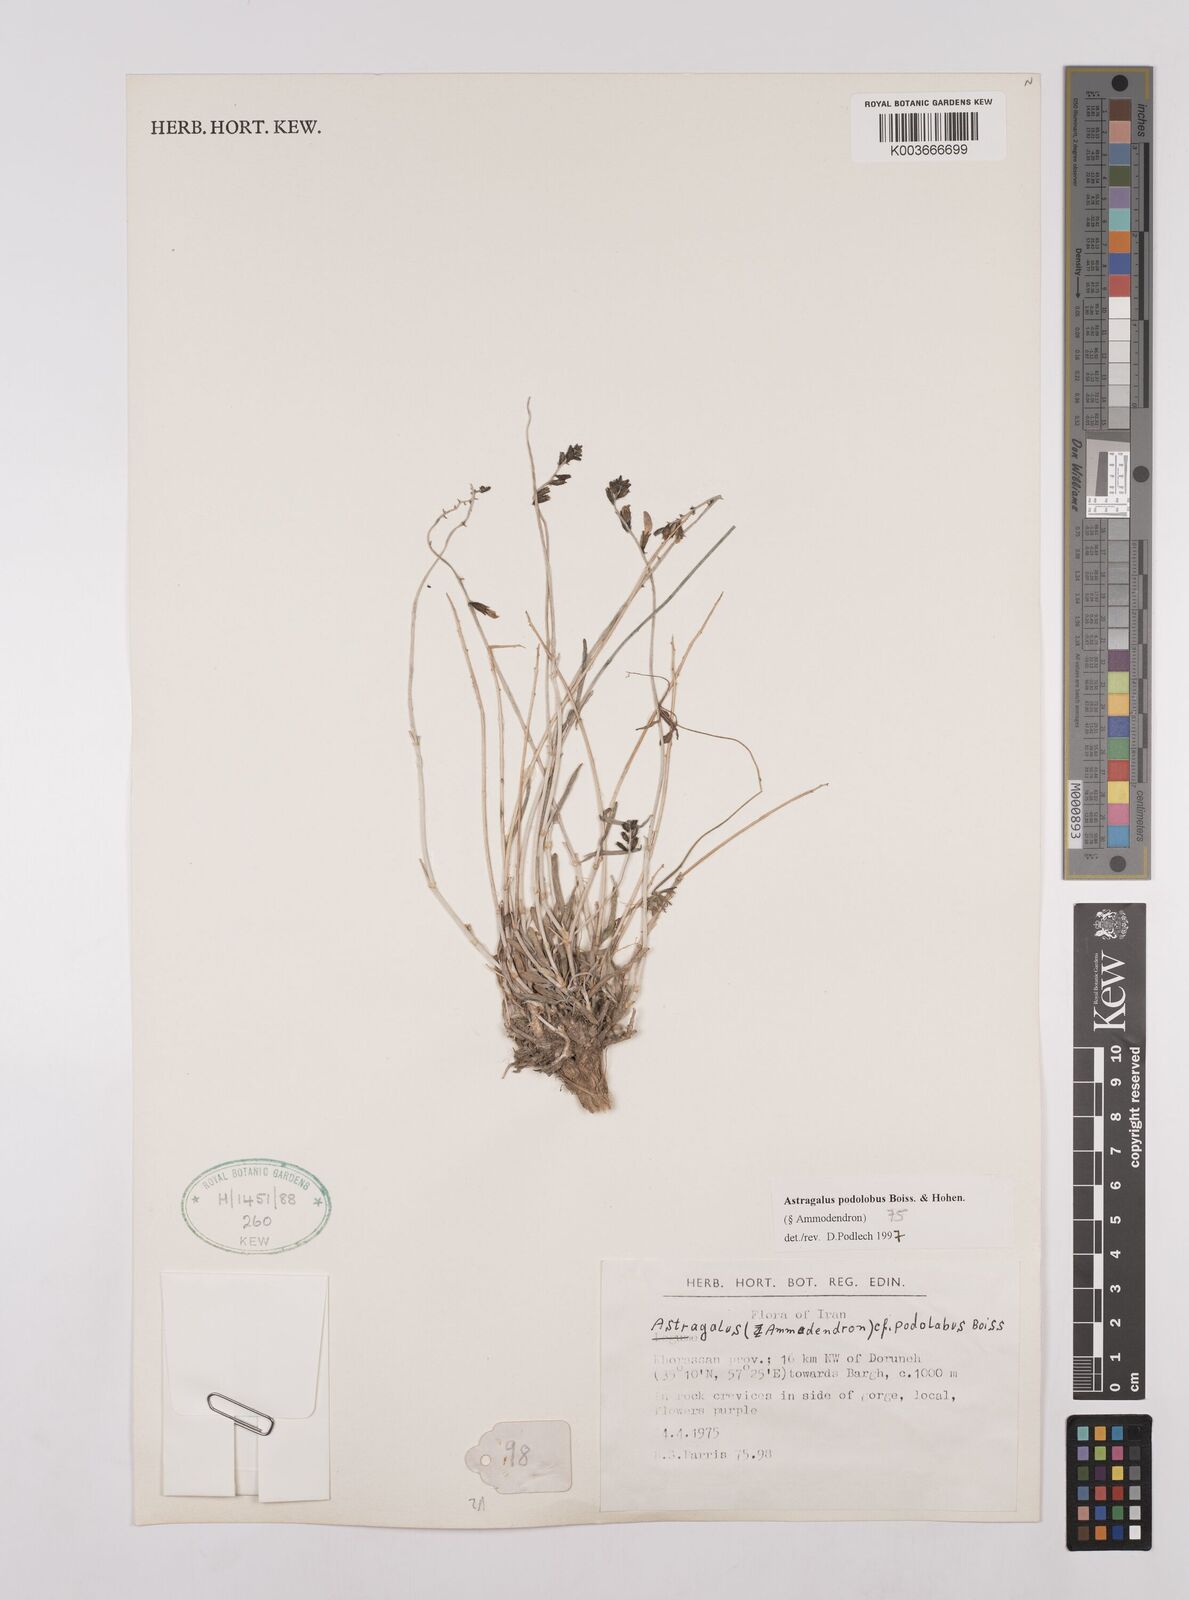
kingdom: Plantae
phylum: Tracheophyta
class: Magnoliopsida
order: Fabales
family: Fabaceae
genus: Astragalus
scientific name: Astragalus podolobus
